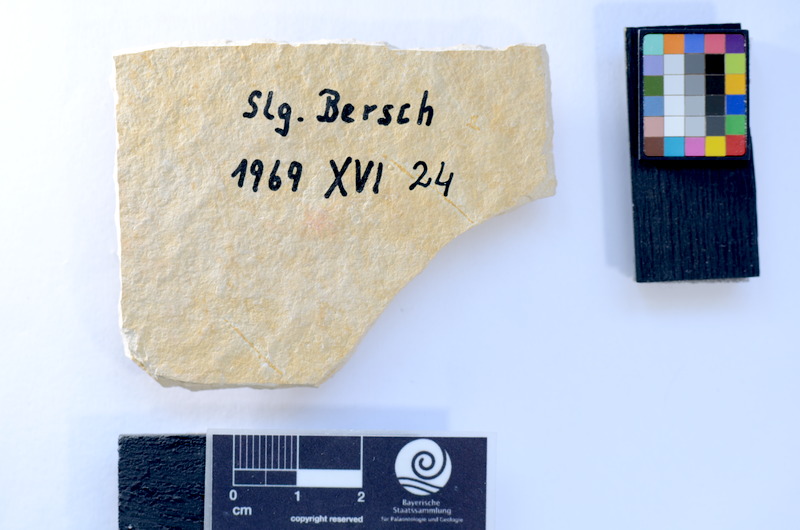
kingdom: Animalia
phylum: Chordata
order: Salmoniformes
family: Orthogonikleithridae
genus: Leptolepides
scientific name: Leptolepides sprattiformis
